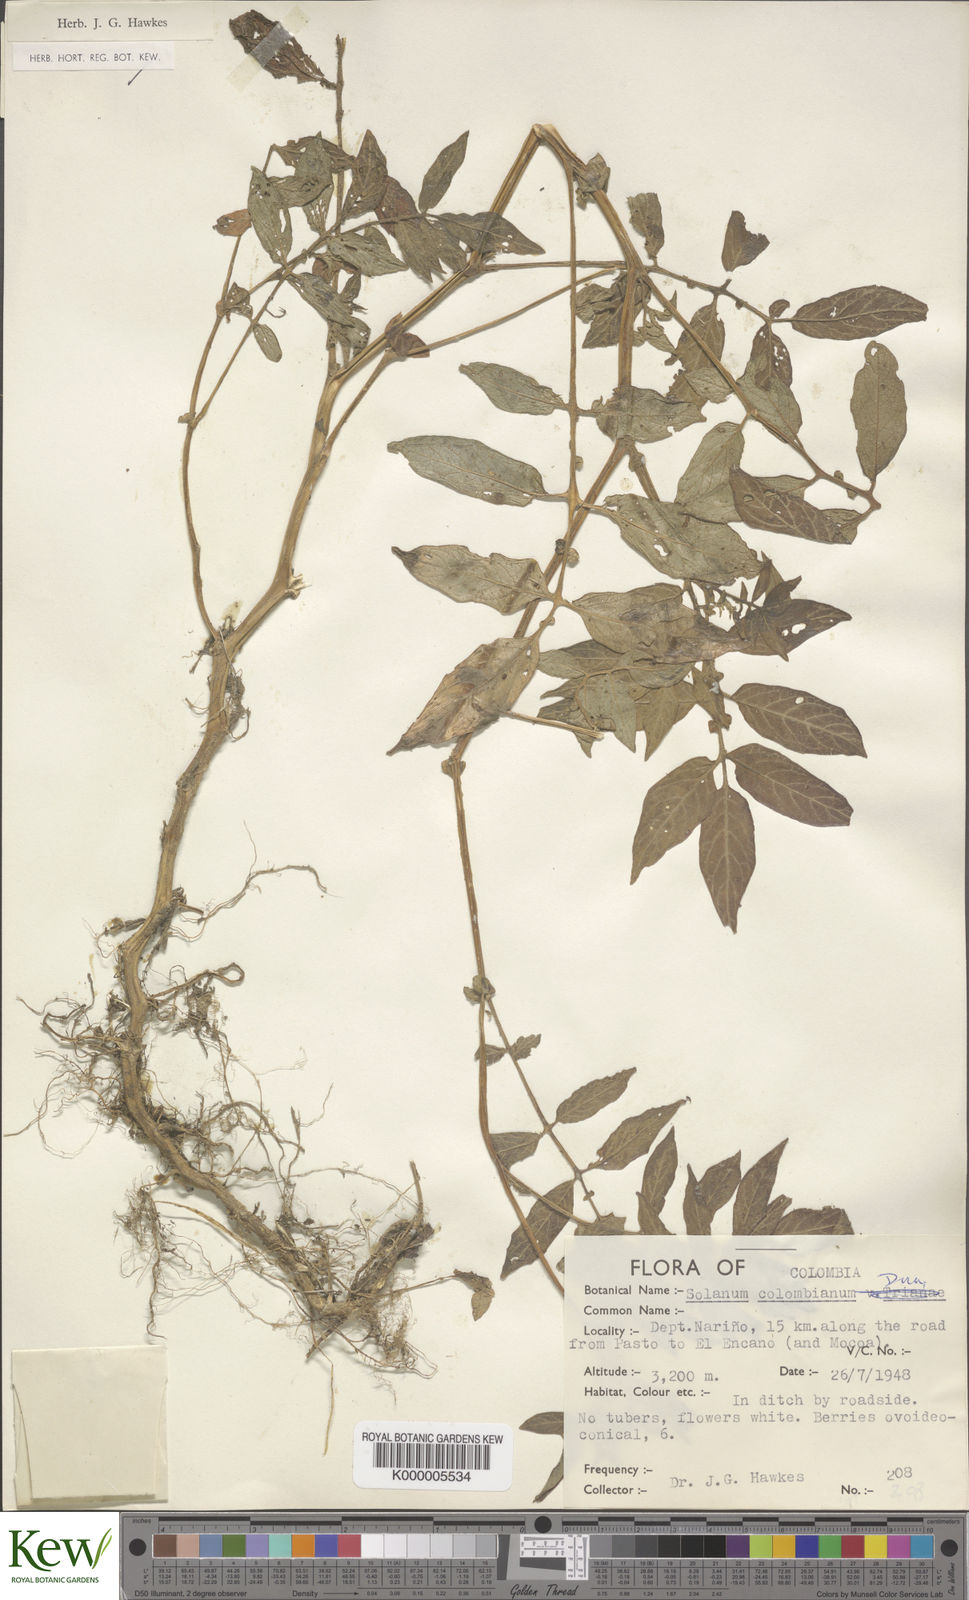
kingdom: Plantae
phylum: Tracheophyta
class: Magnoliopsida
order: Solanales
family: Solanaceae
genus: Solanum
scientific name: Solanum colombianum
